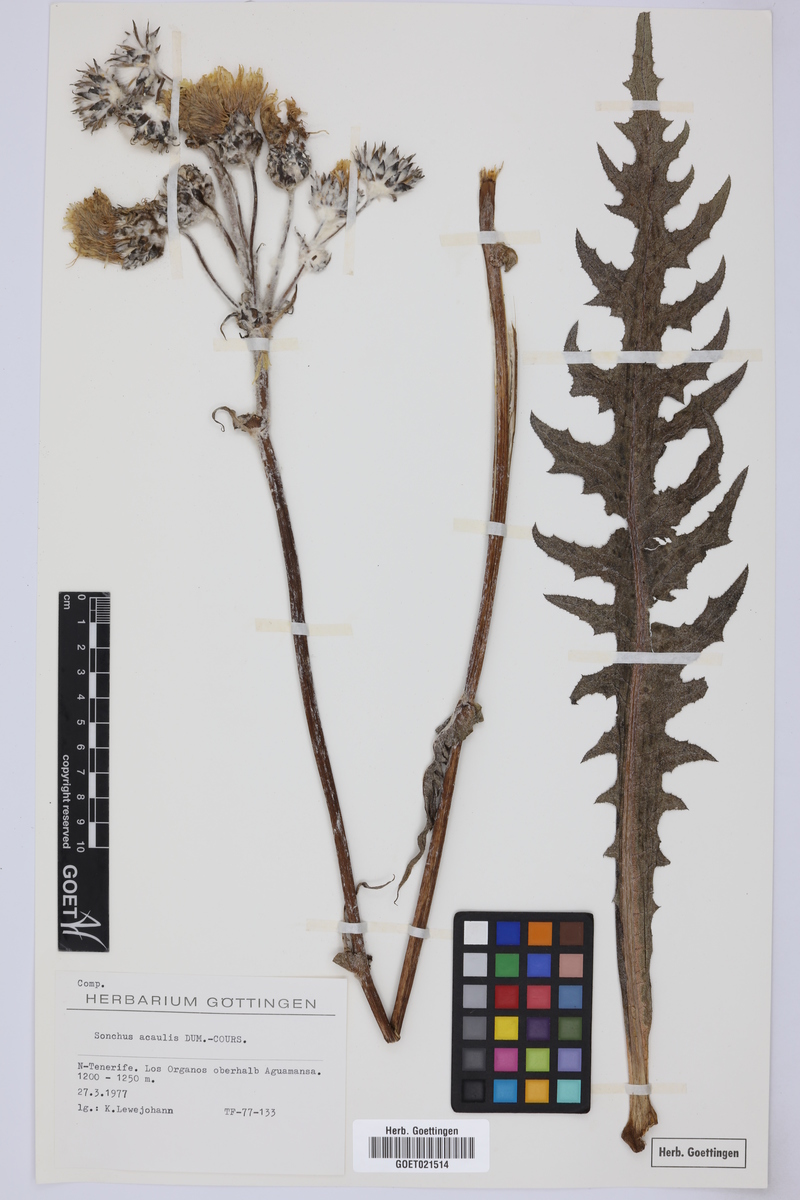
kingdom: Plantae
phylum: Tracheophyta
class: Magnoliopsida
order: Asterales
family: Asteraceae
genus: Sonchus
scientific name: Sonchus acaulis
